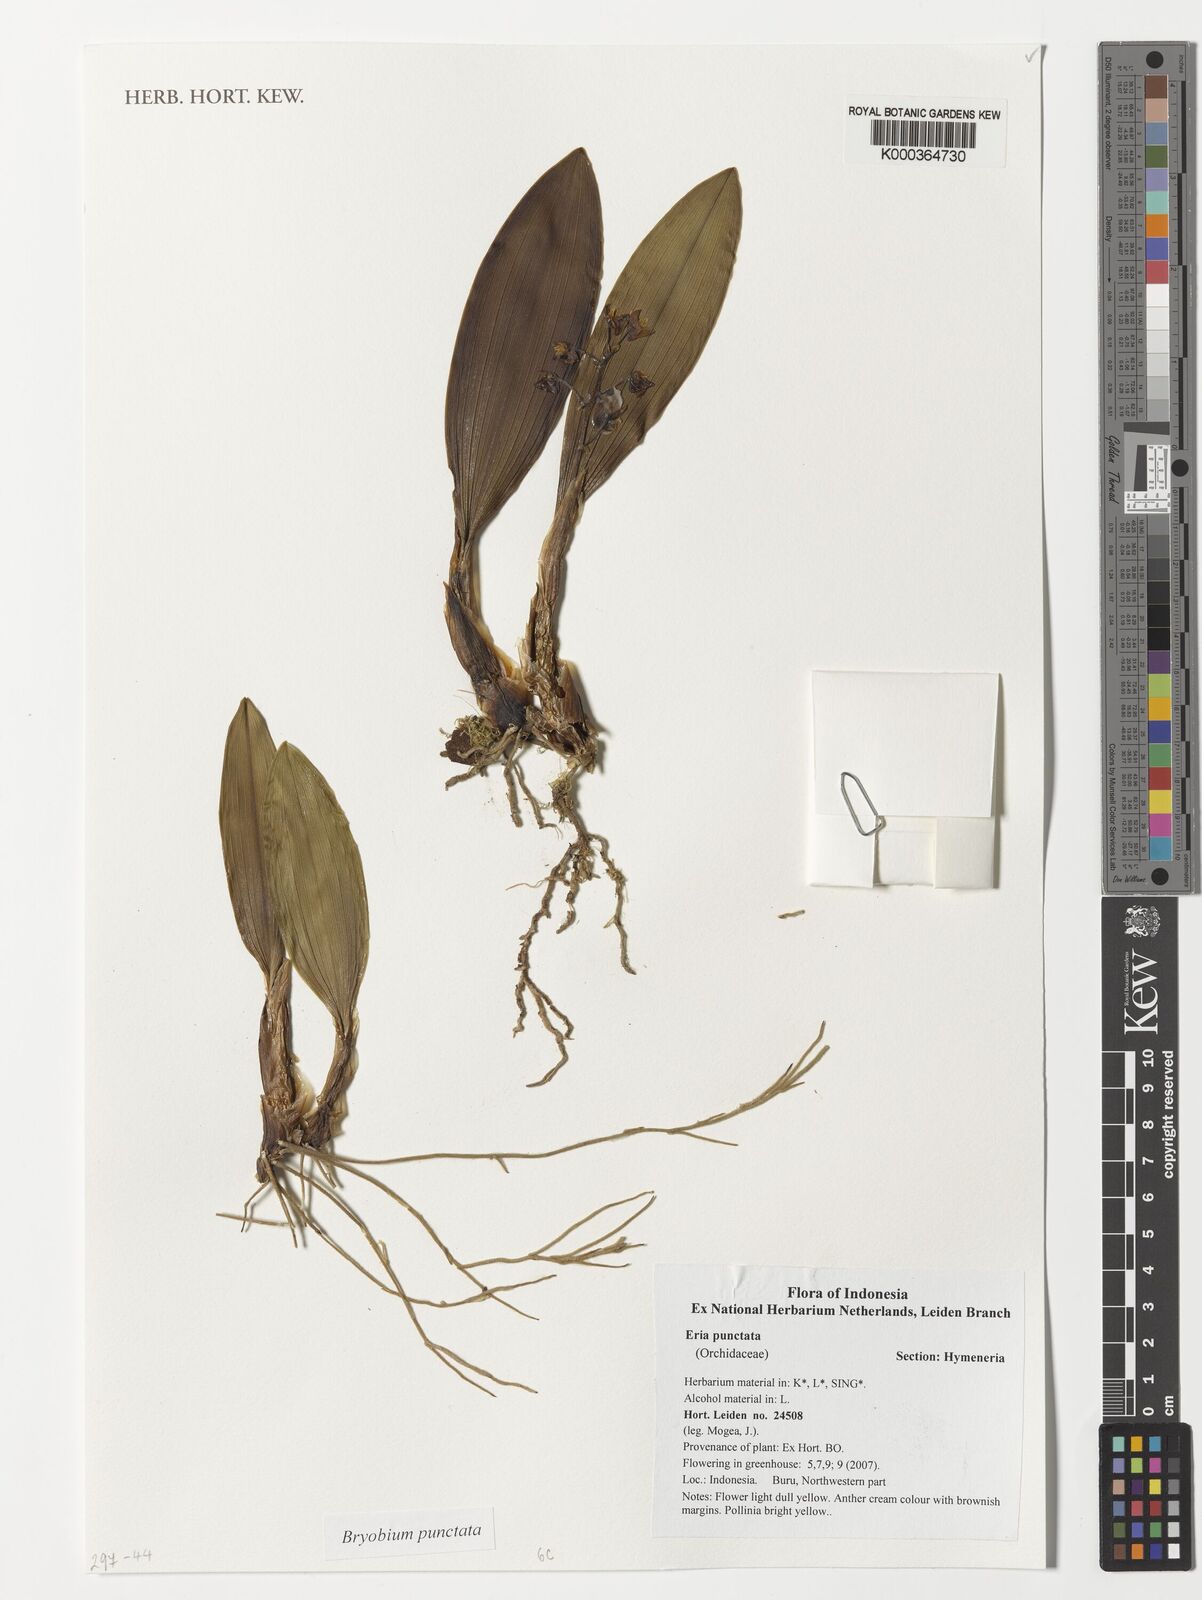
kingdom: Plantae
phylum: Tracheophyta
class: Liliopsida
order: Asparagales
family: Orchidaceae
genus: Bryobium
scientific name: Bryobium punctatum
